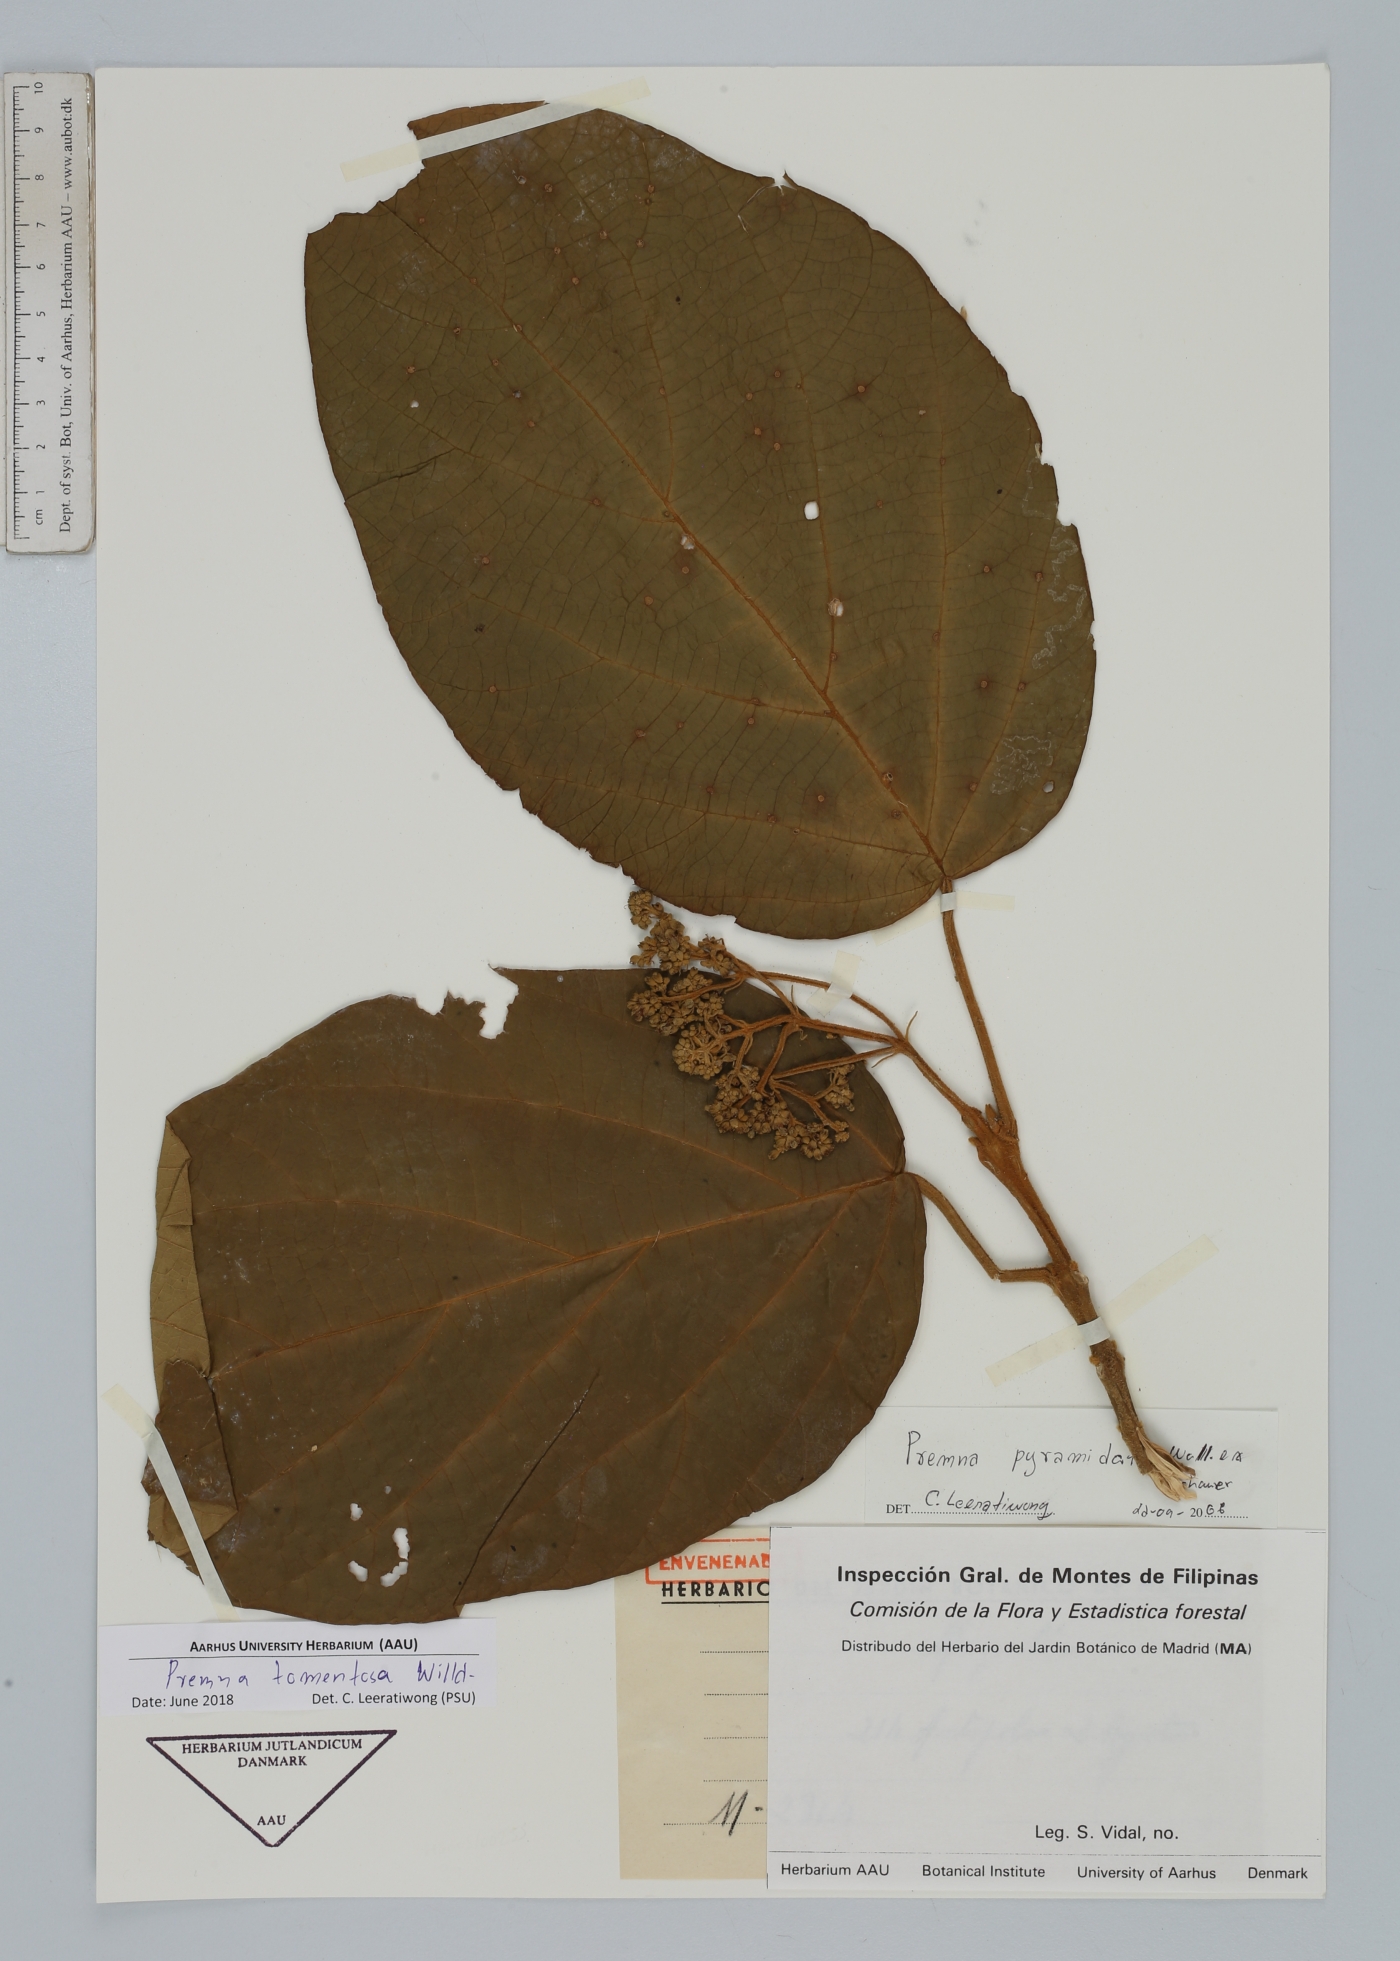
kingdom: Plantae
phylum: Tracheophyta
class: Magnoliopsida
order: Lamiales
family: Lamiaceae
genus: Premna
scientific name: Premna tomentosa
